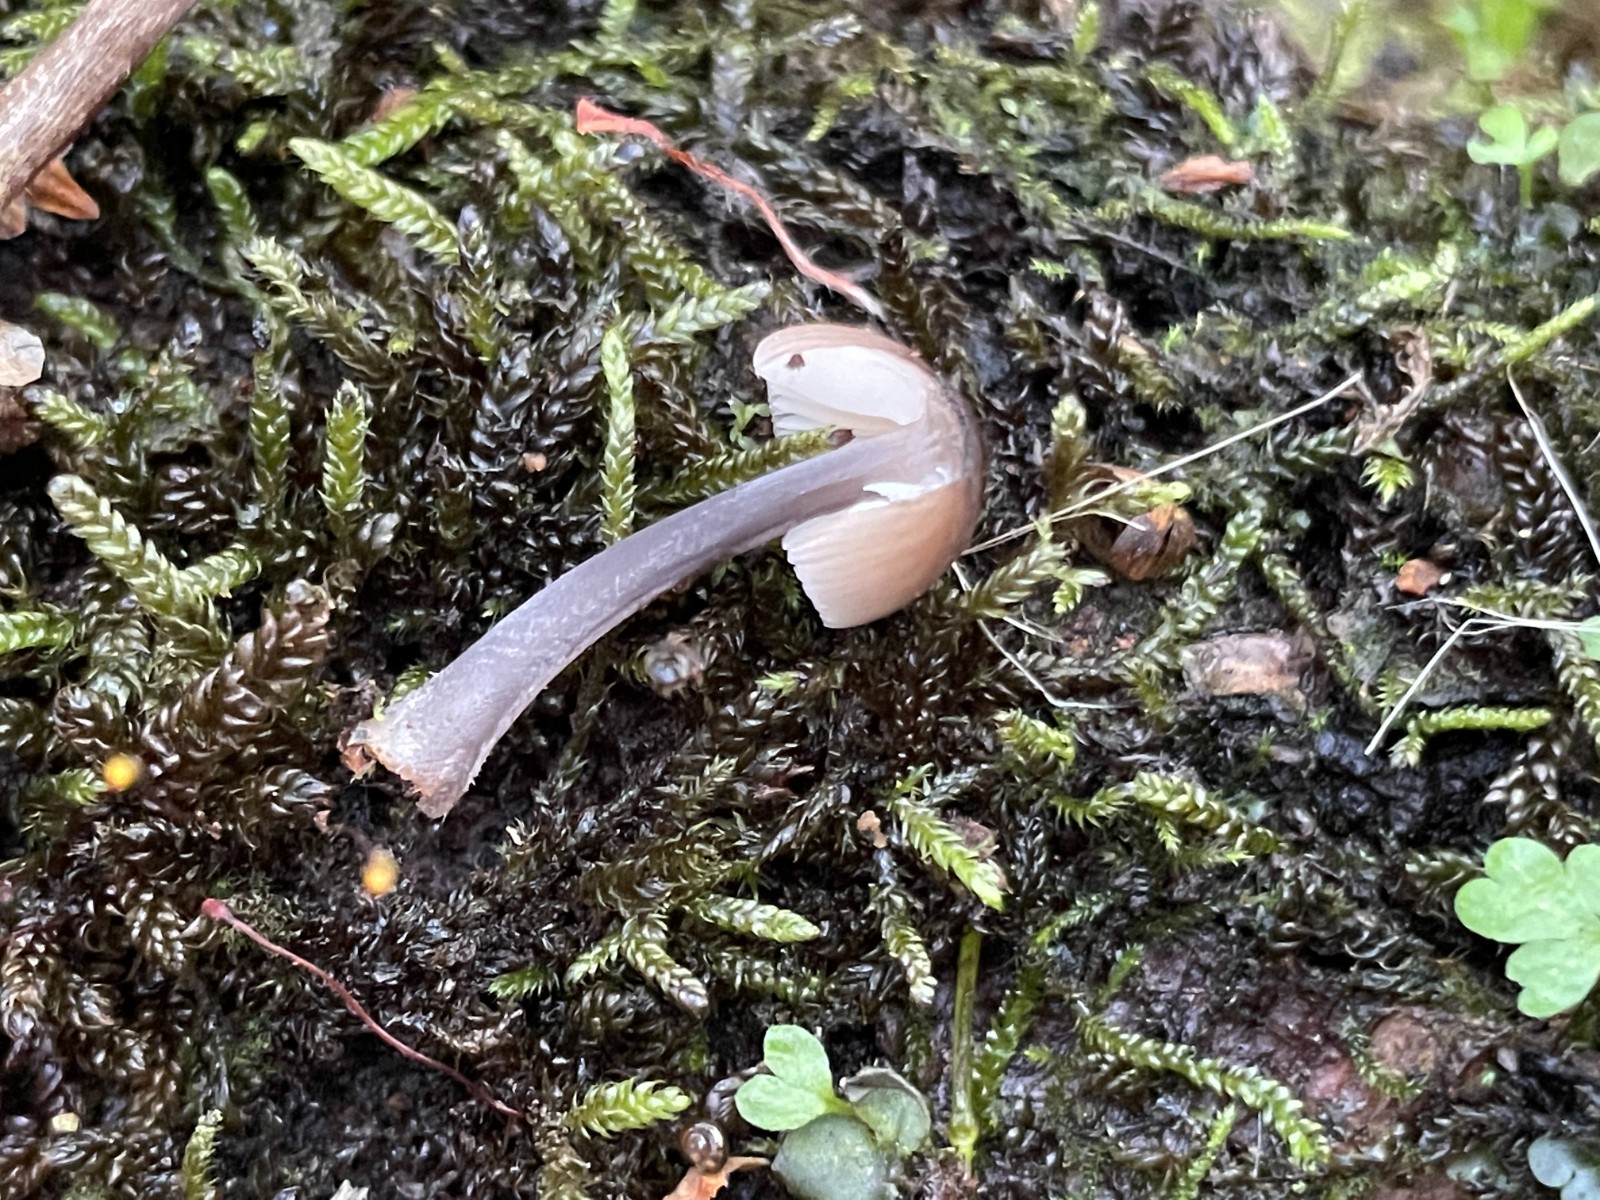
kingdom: Fungi
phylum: Basidiomycota
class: Agaricomycetes
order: Agaricales
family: Mycenaceae
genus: Mycena
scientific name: Mycena
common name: huesvamp
